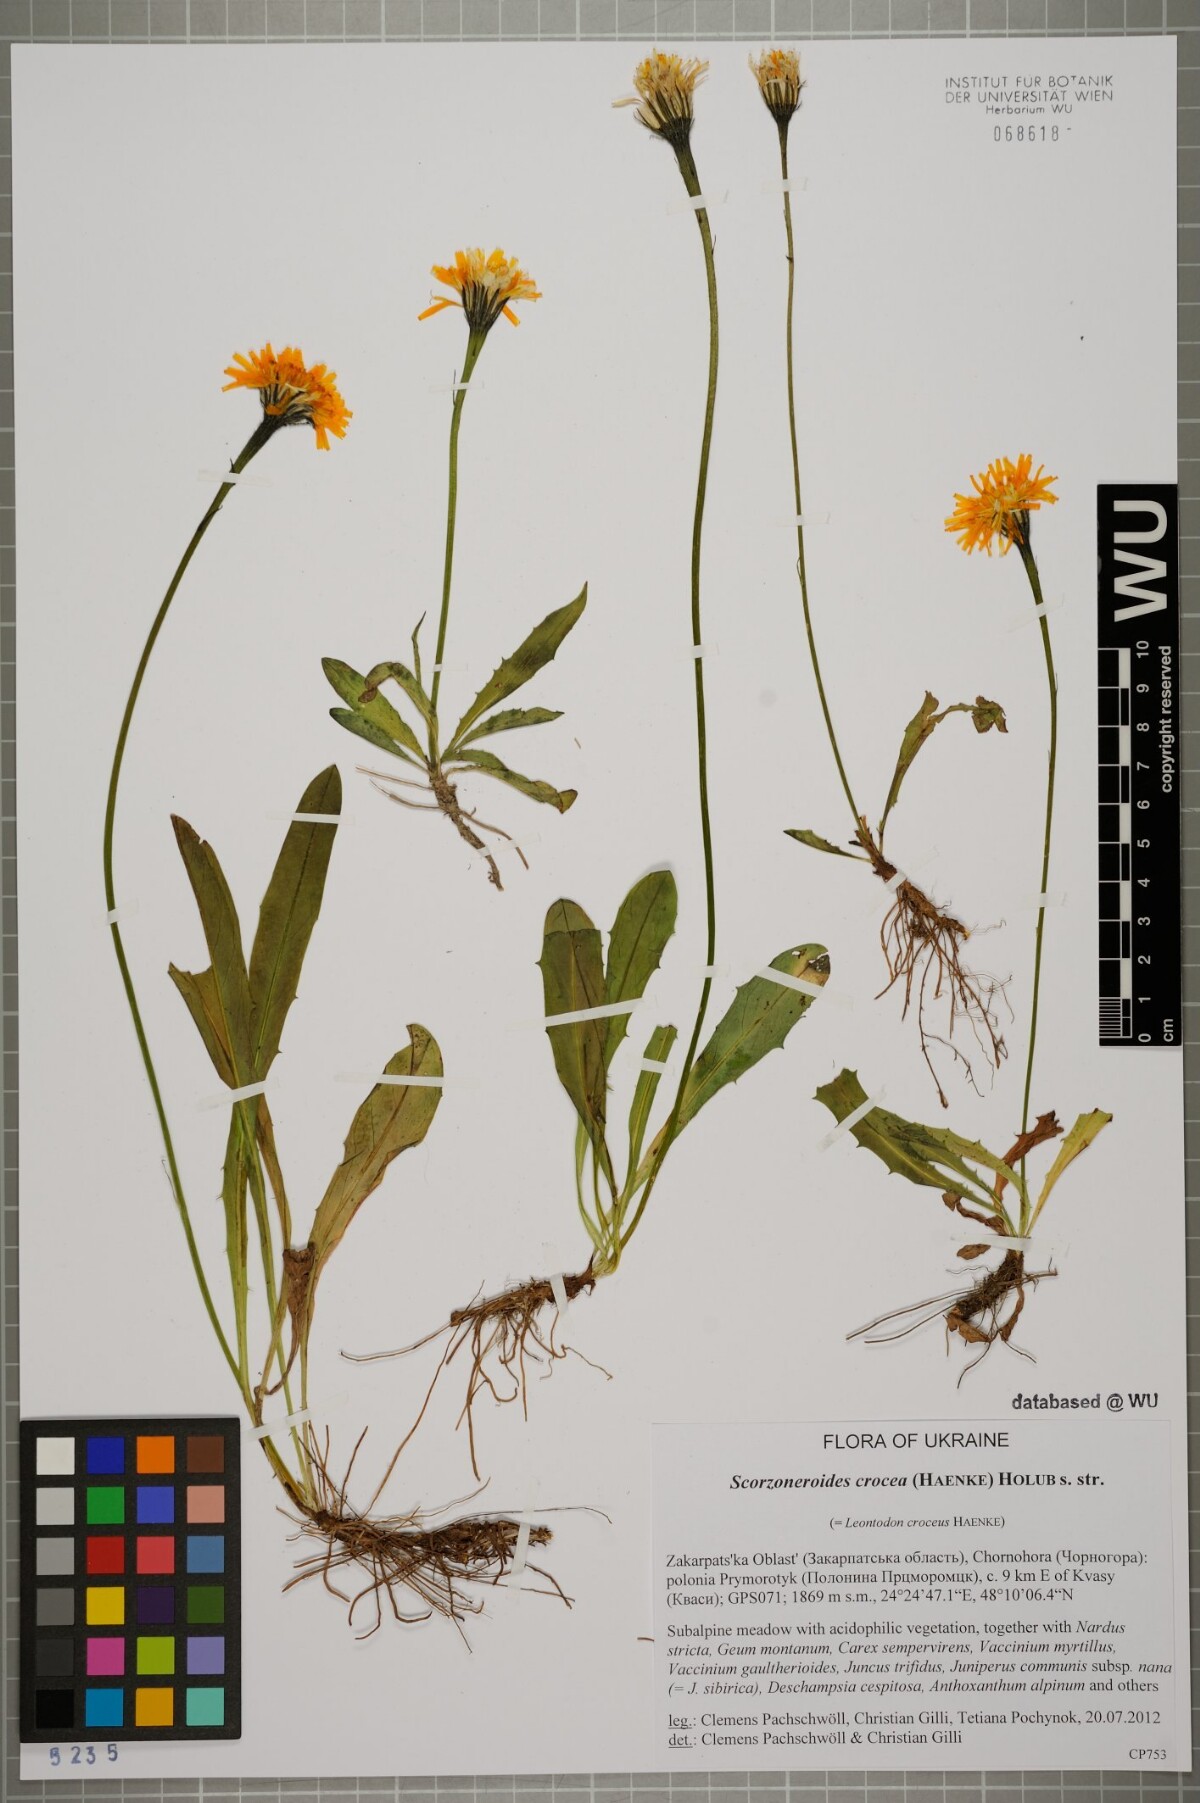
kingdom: Plantae
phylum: Tracheophyta
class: Magnoliopsida
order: Asterales
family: Asteraceae
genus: Scorzoneroides
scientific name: Scorzoneroides crocea
